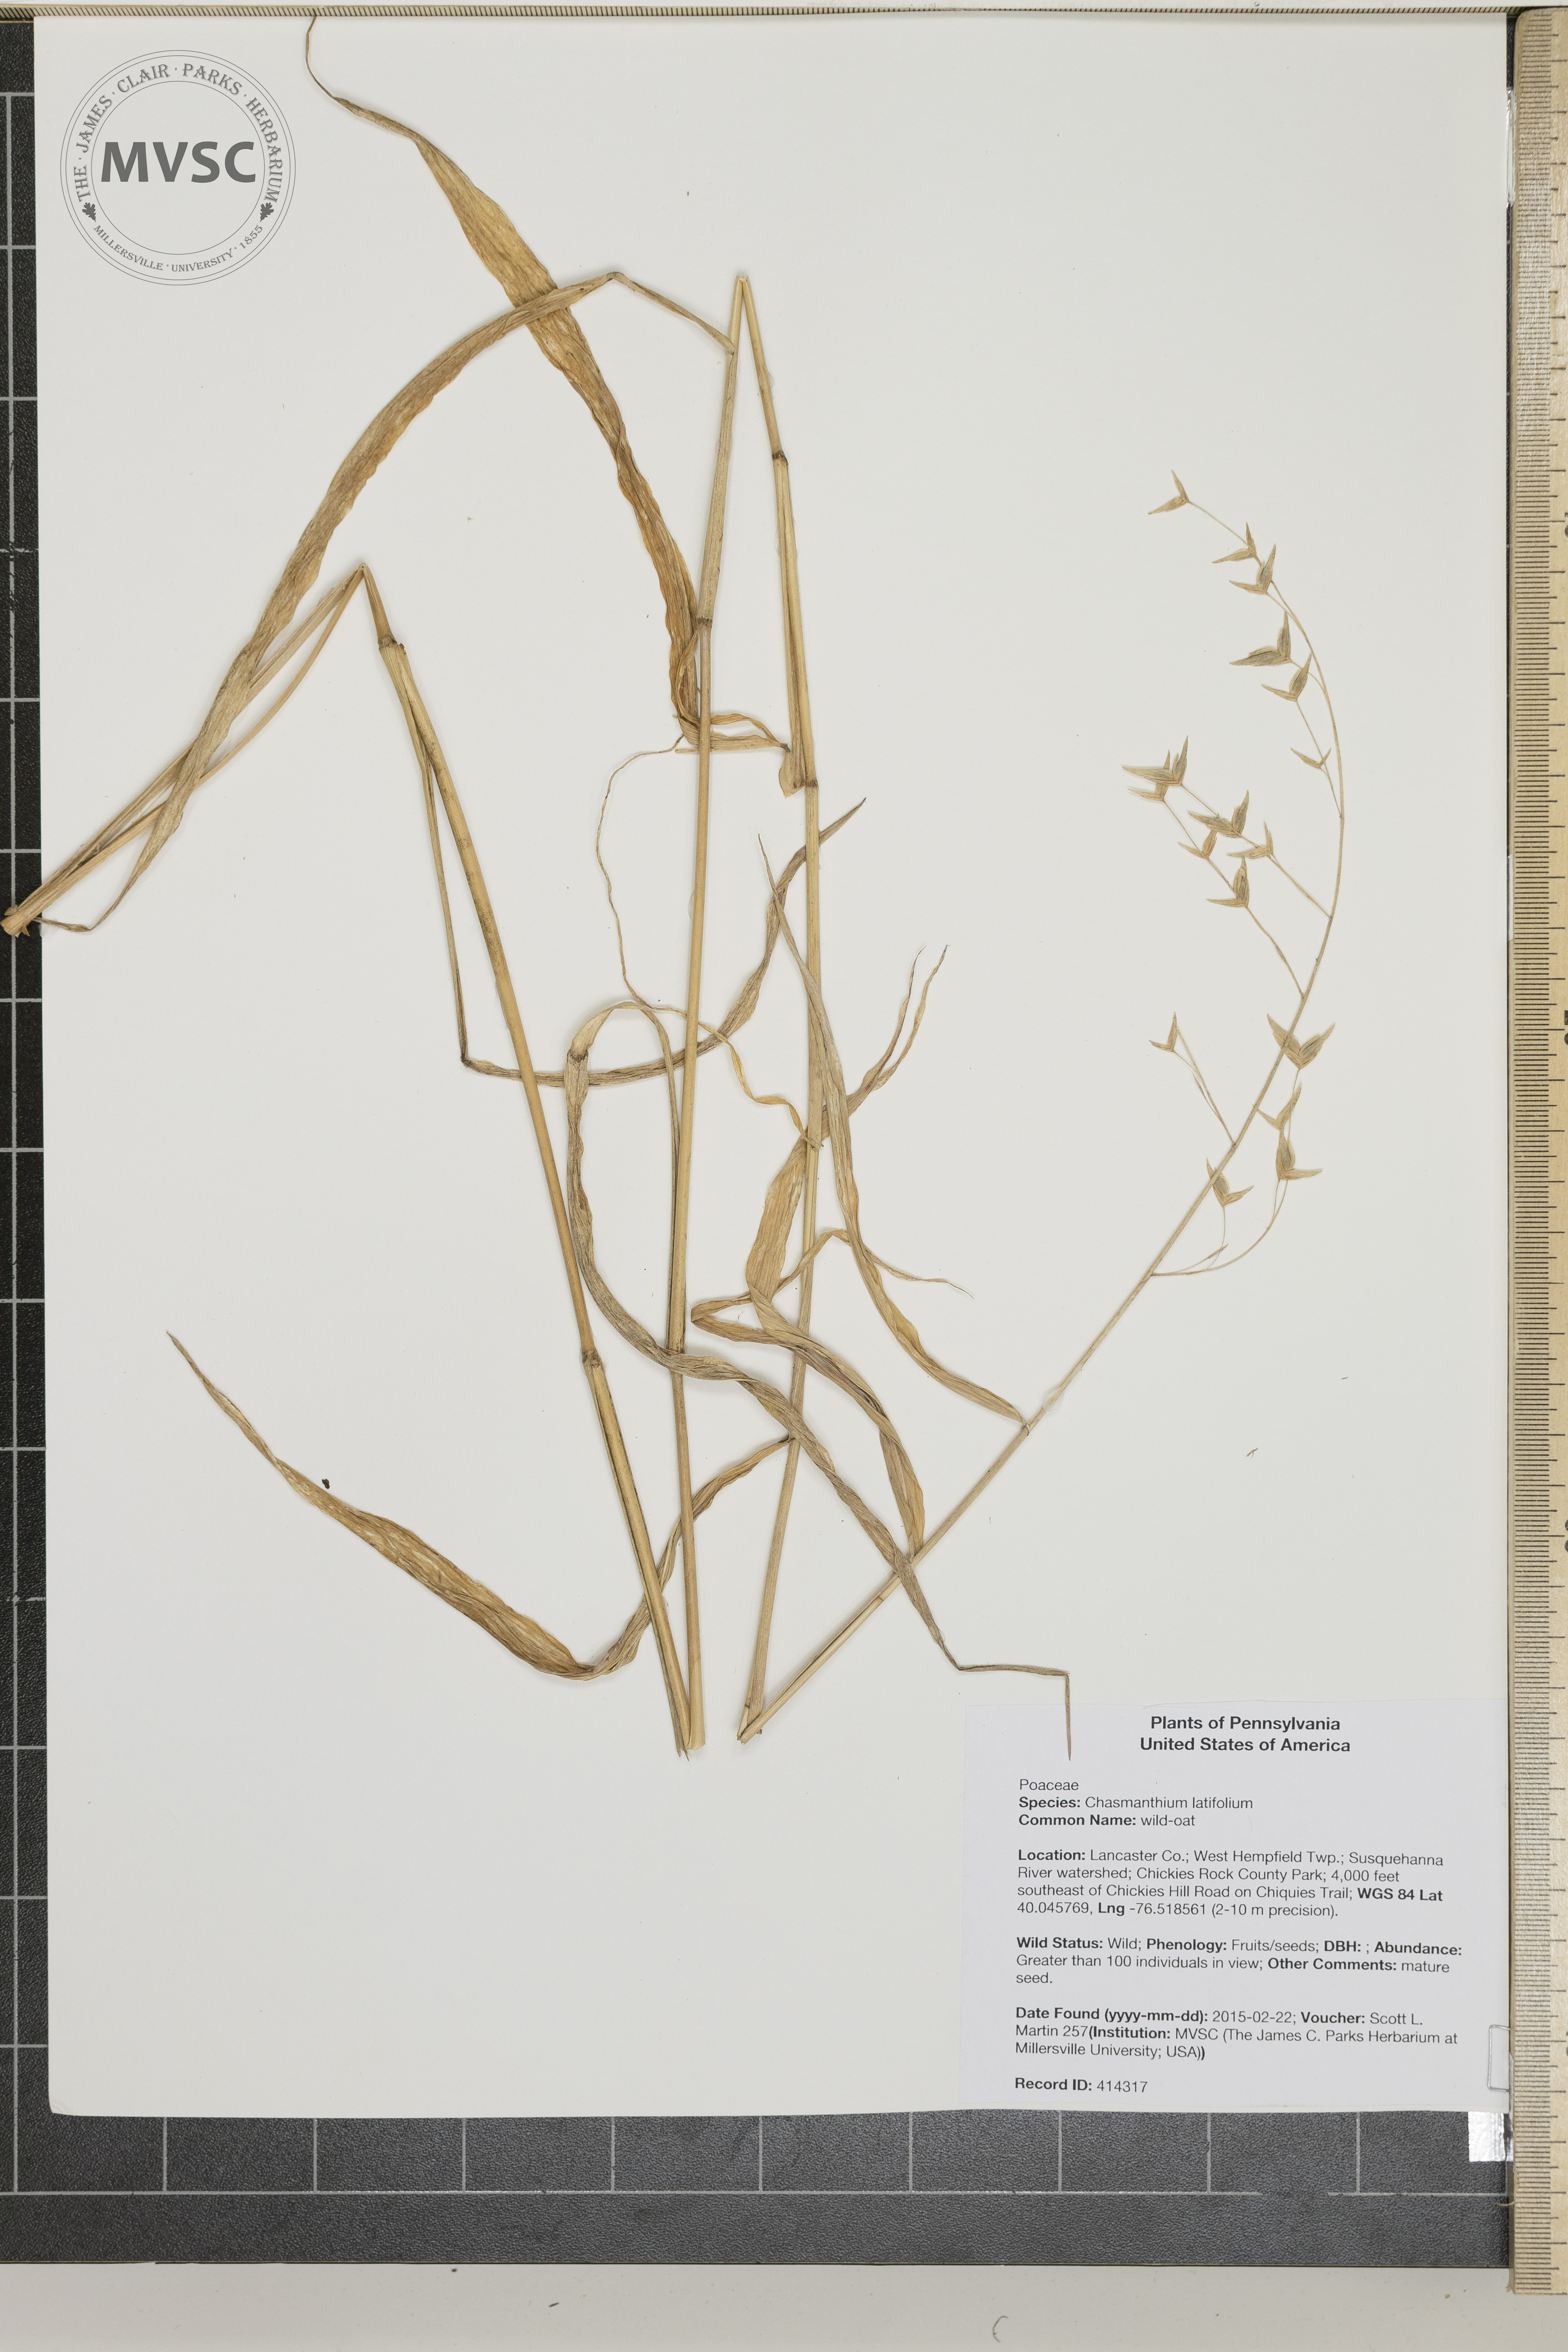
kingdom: Plantae
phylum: Tracheophyta
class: Liliopsida
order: Poales
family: Poaceae
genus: Chasmanthium
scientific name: Chasmanthium latifolium
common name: wild-oat
